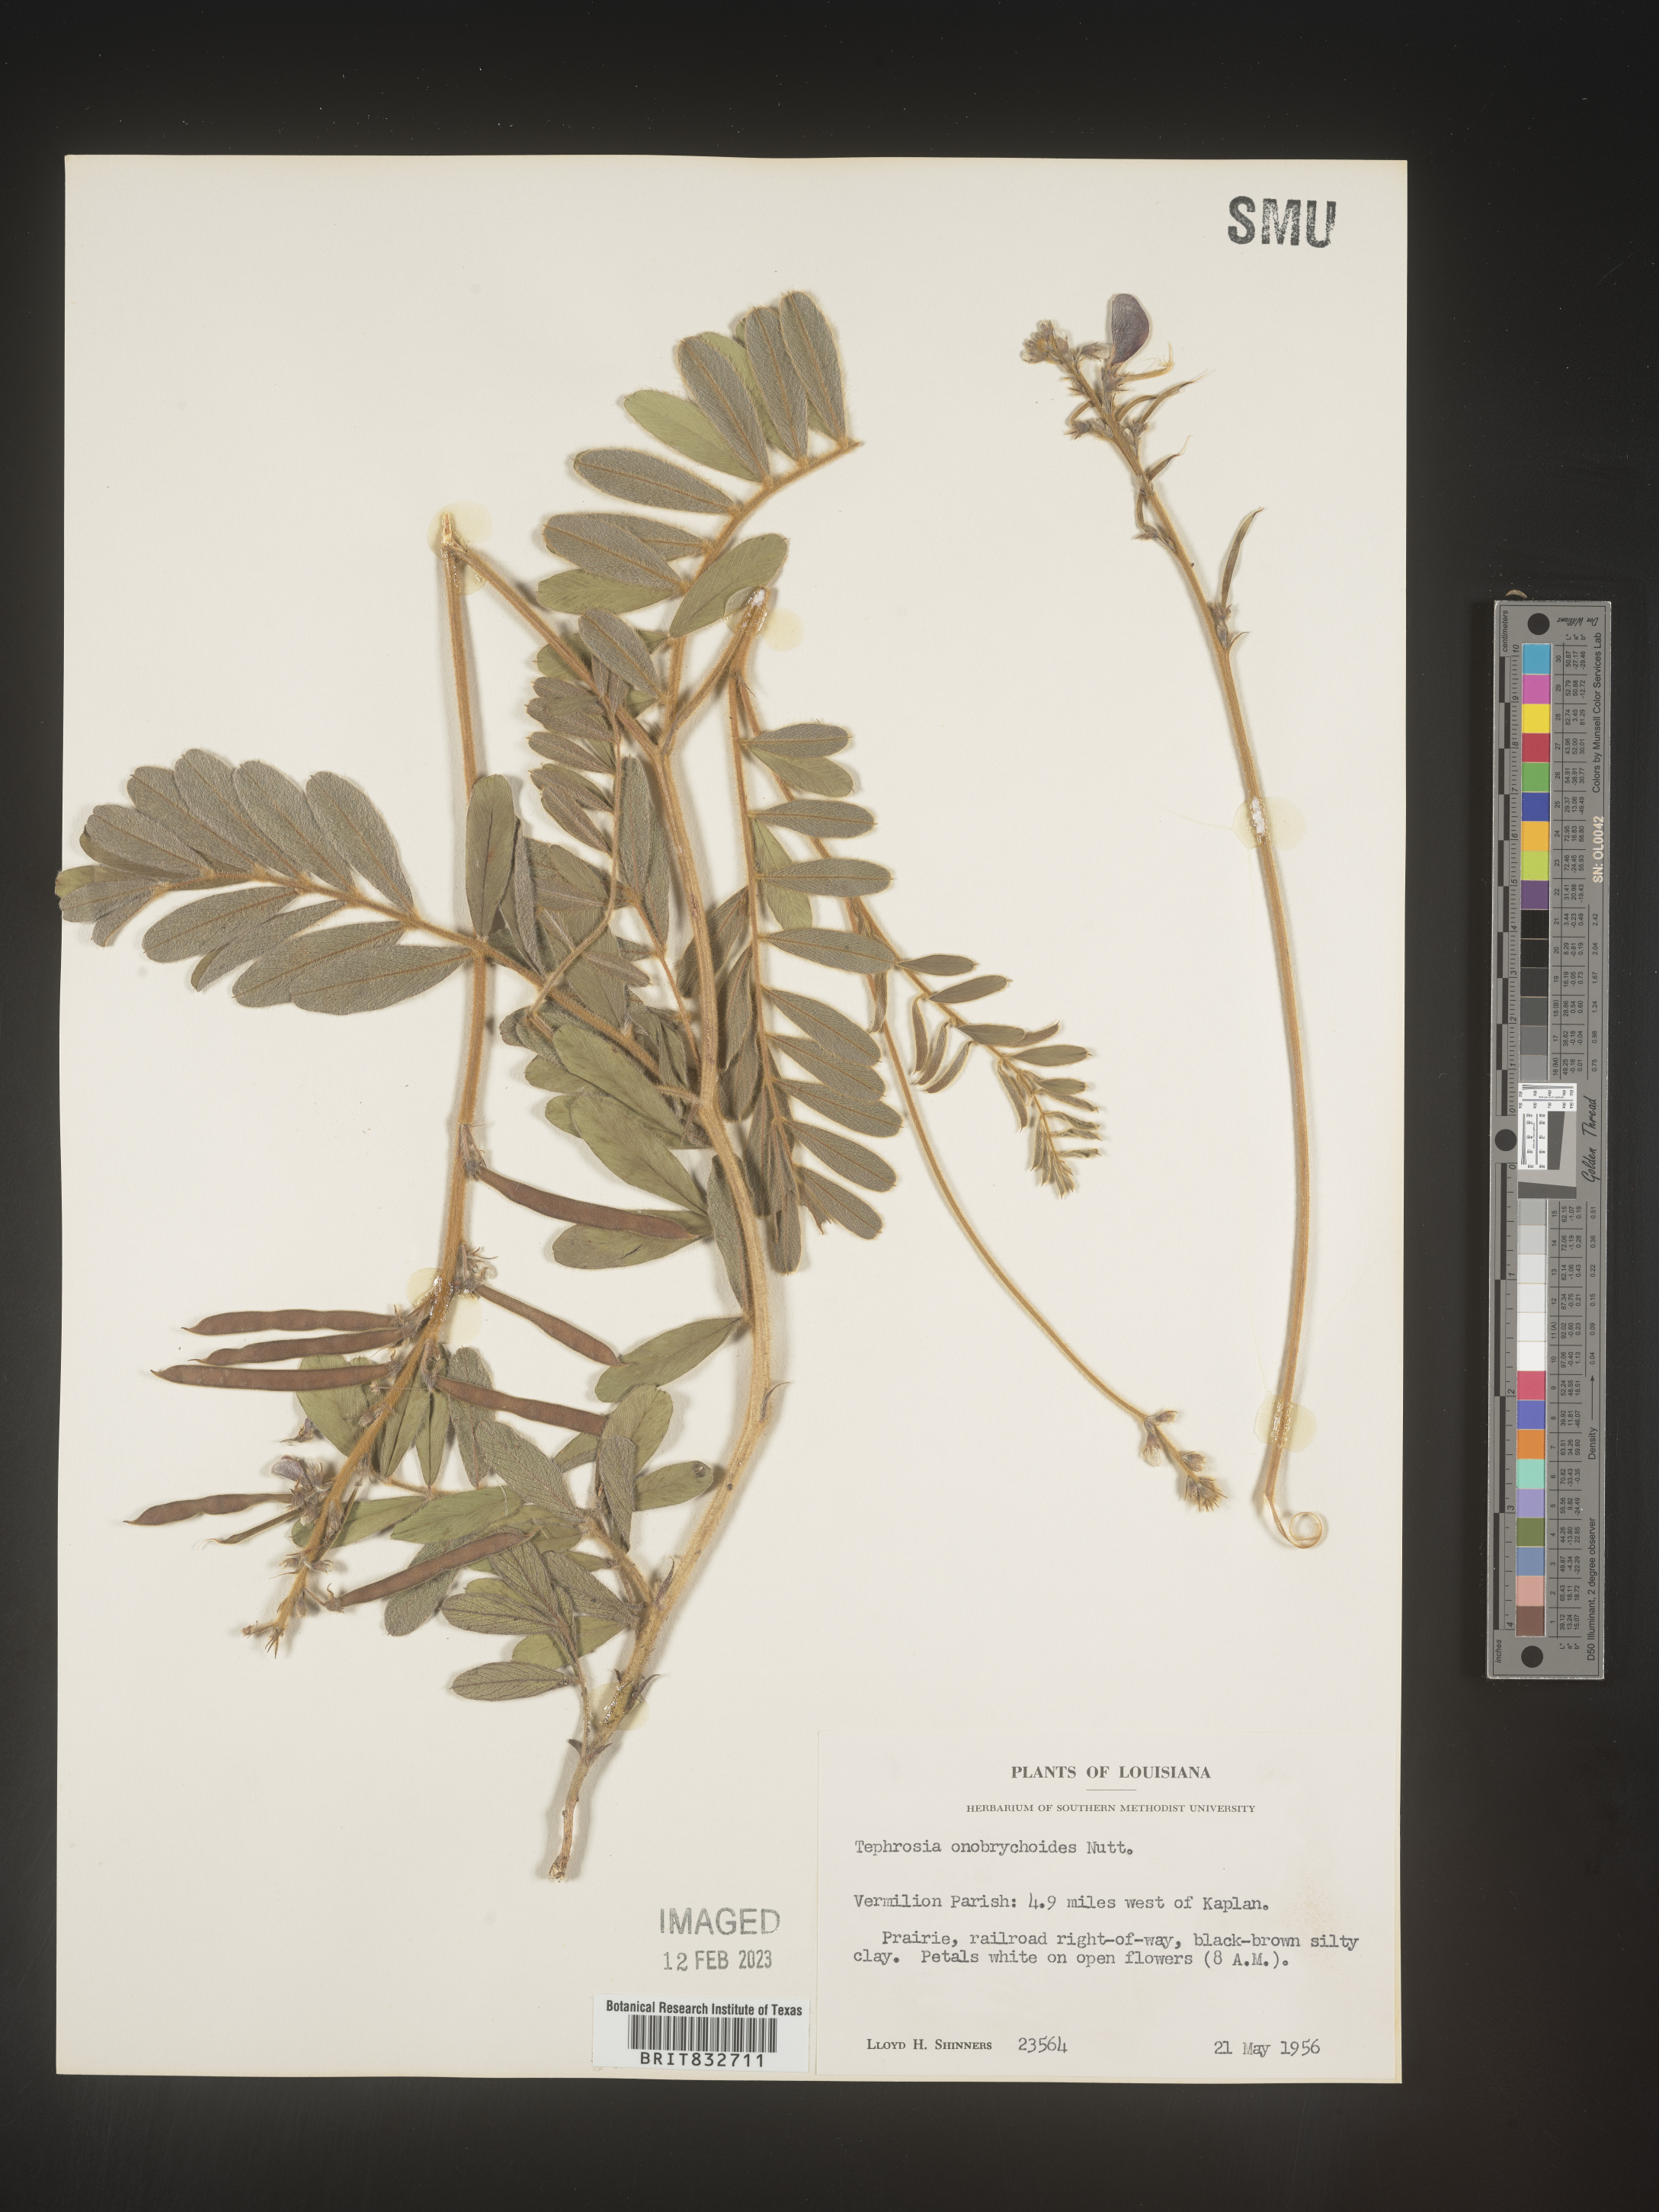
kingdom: Plantae
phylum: Tracheophyta
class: Magnoliopsida
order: Fabales
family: Fabaceae
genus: Tephrosia
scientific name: Tephrosia onobrychoides
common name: Multi-bloom hoary-pea
